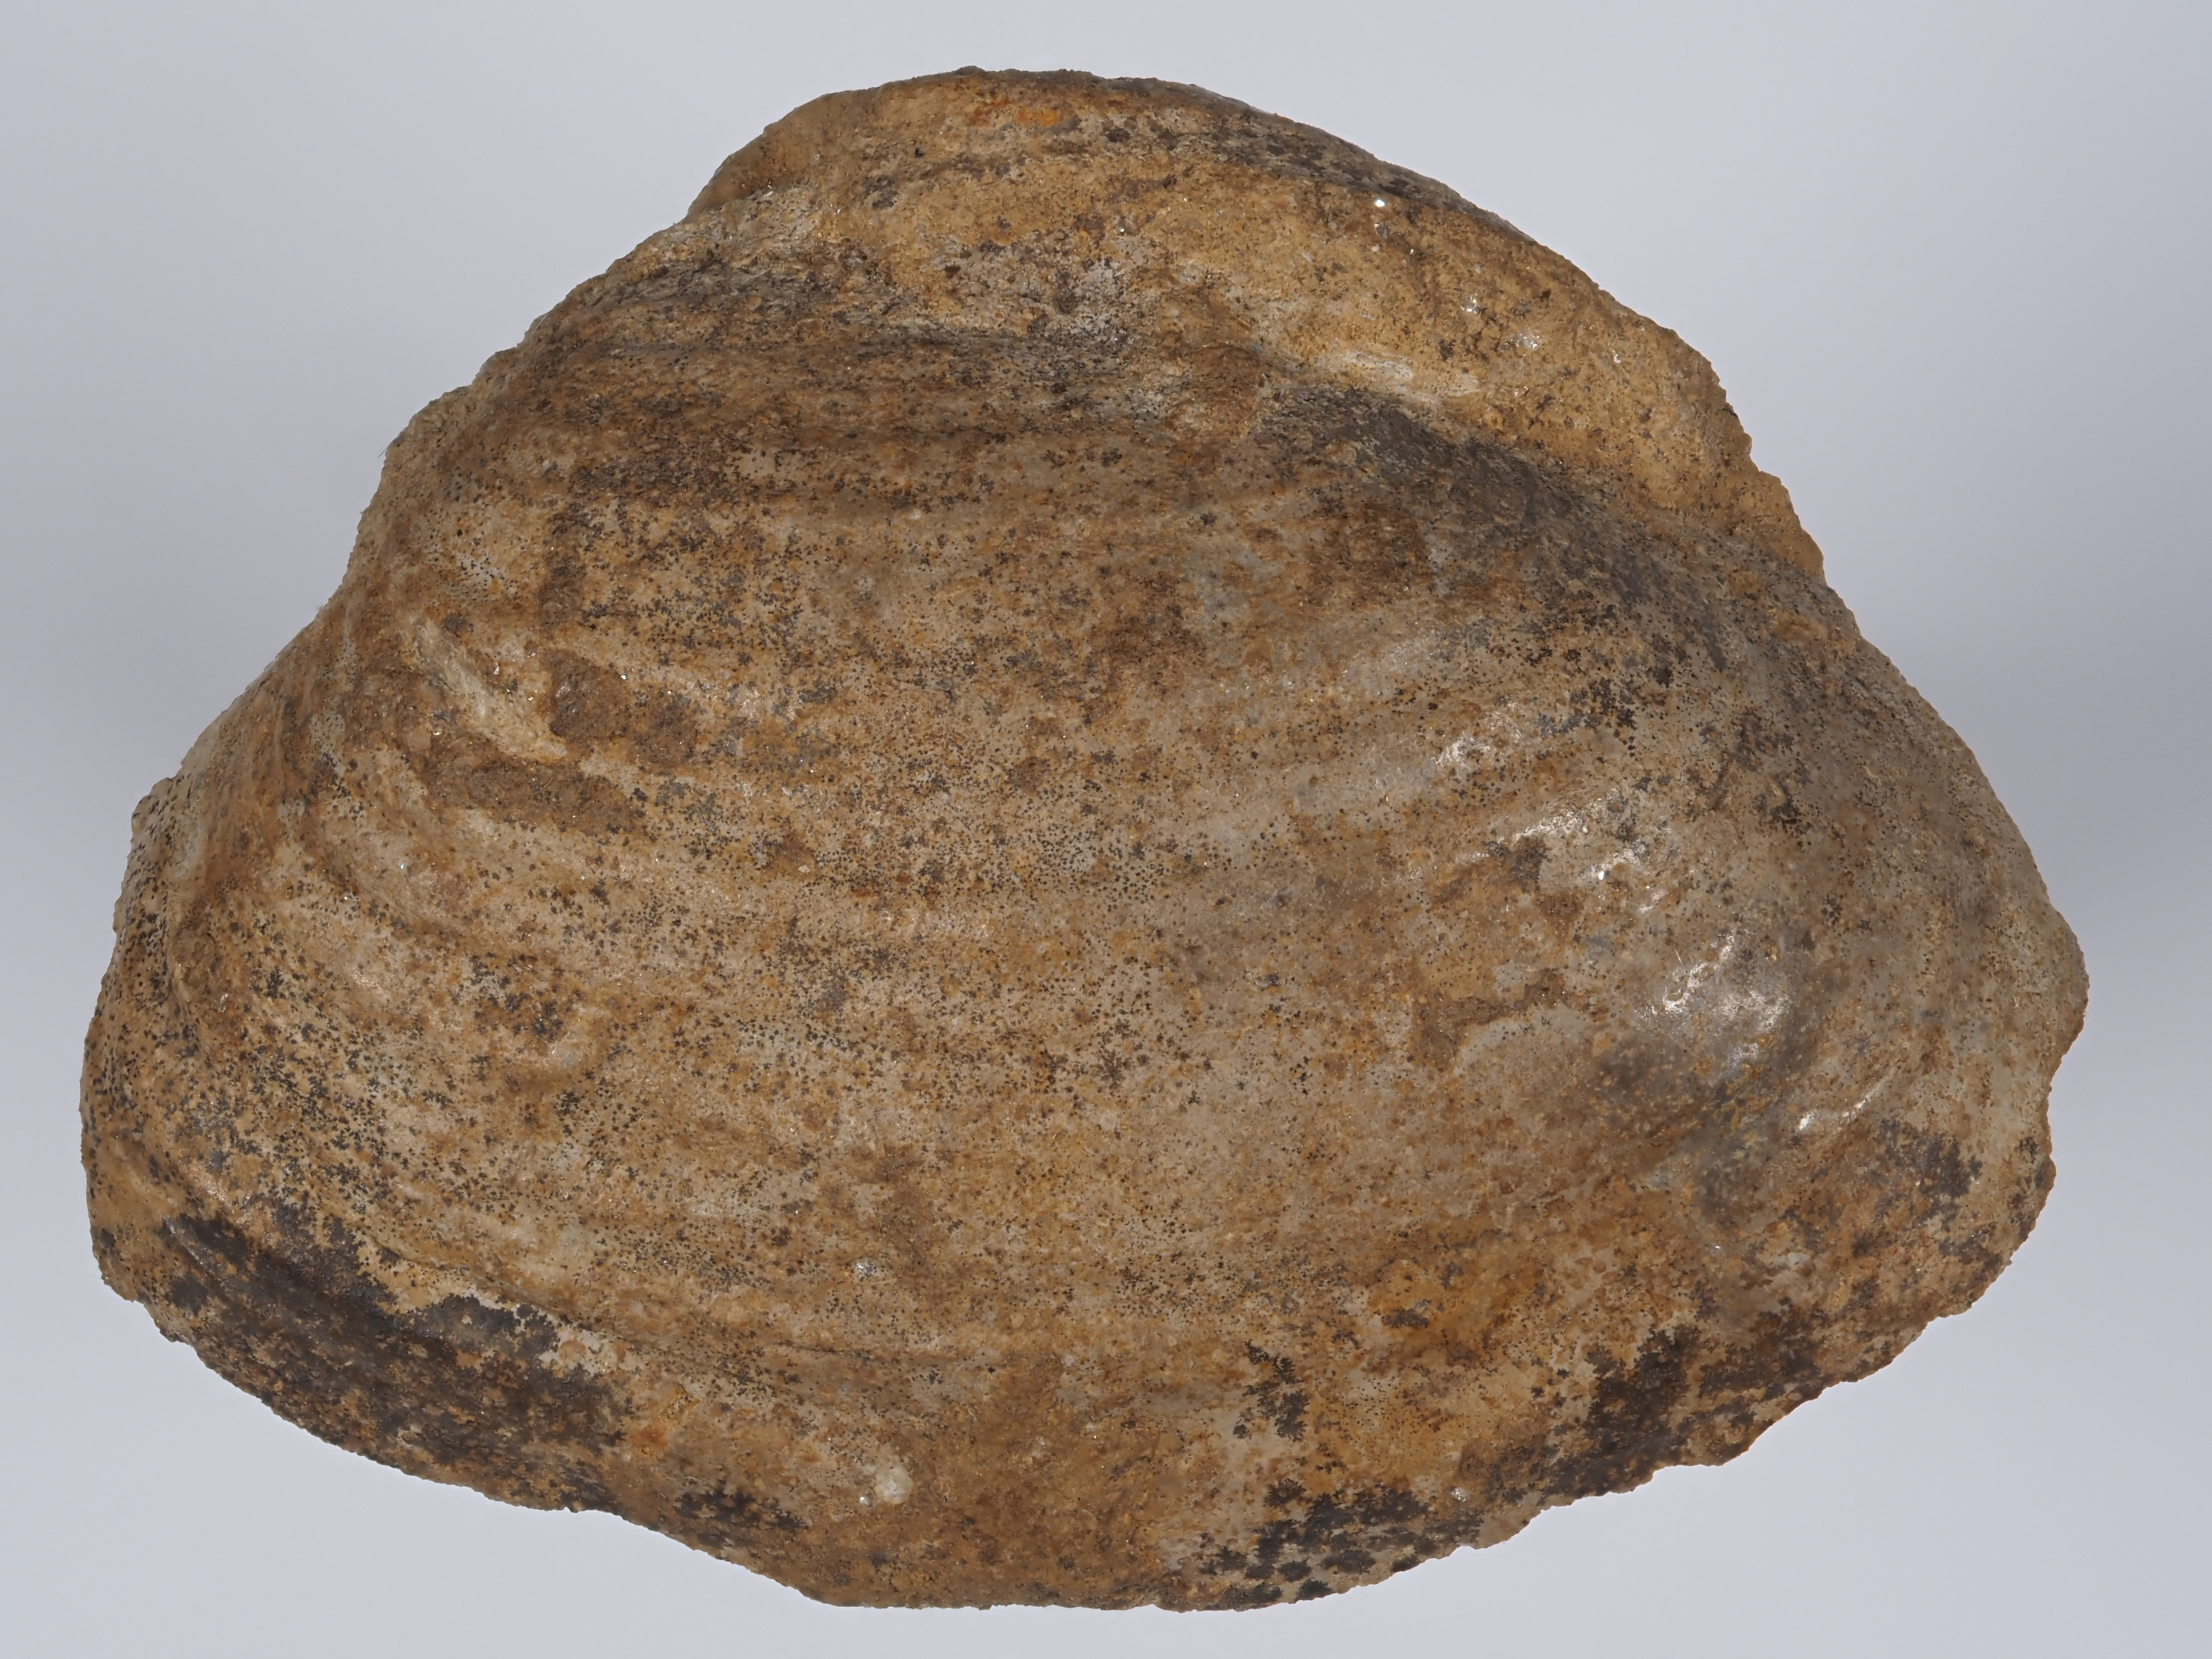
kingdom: Animalia
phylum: Mollusca
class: Bivalvia
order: Myida
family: Ceratomyidae
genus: Gresslya
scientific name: Gresslya
